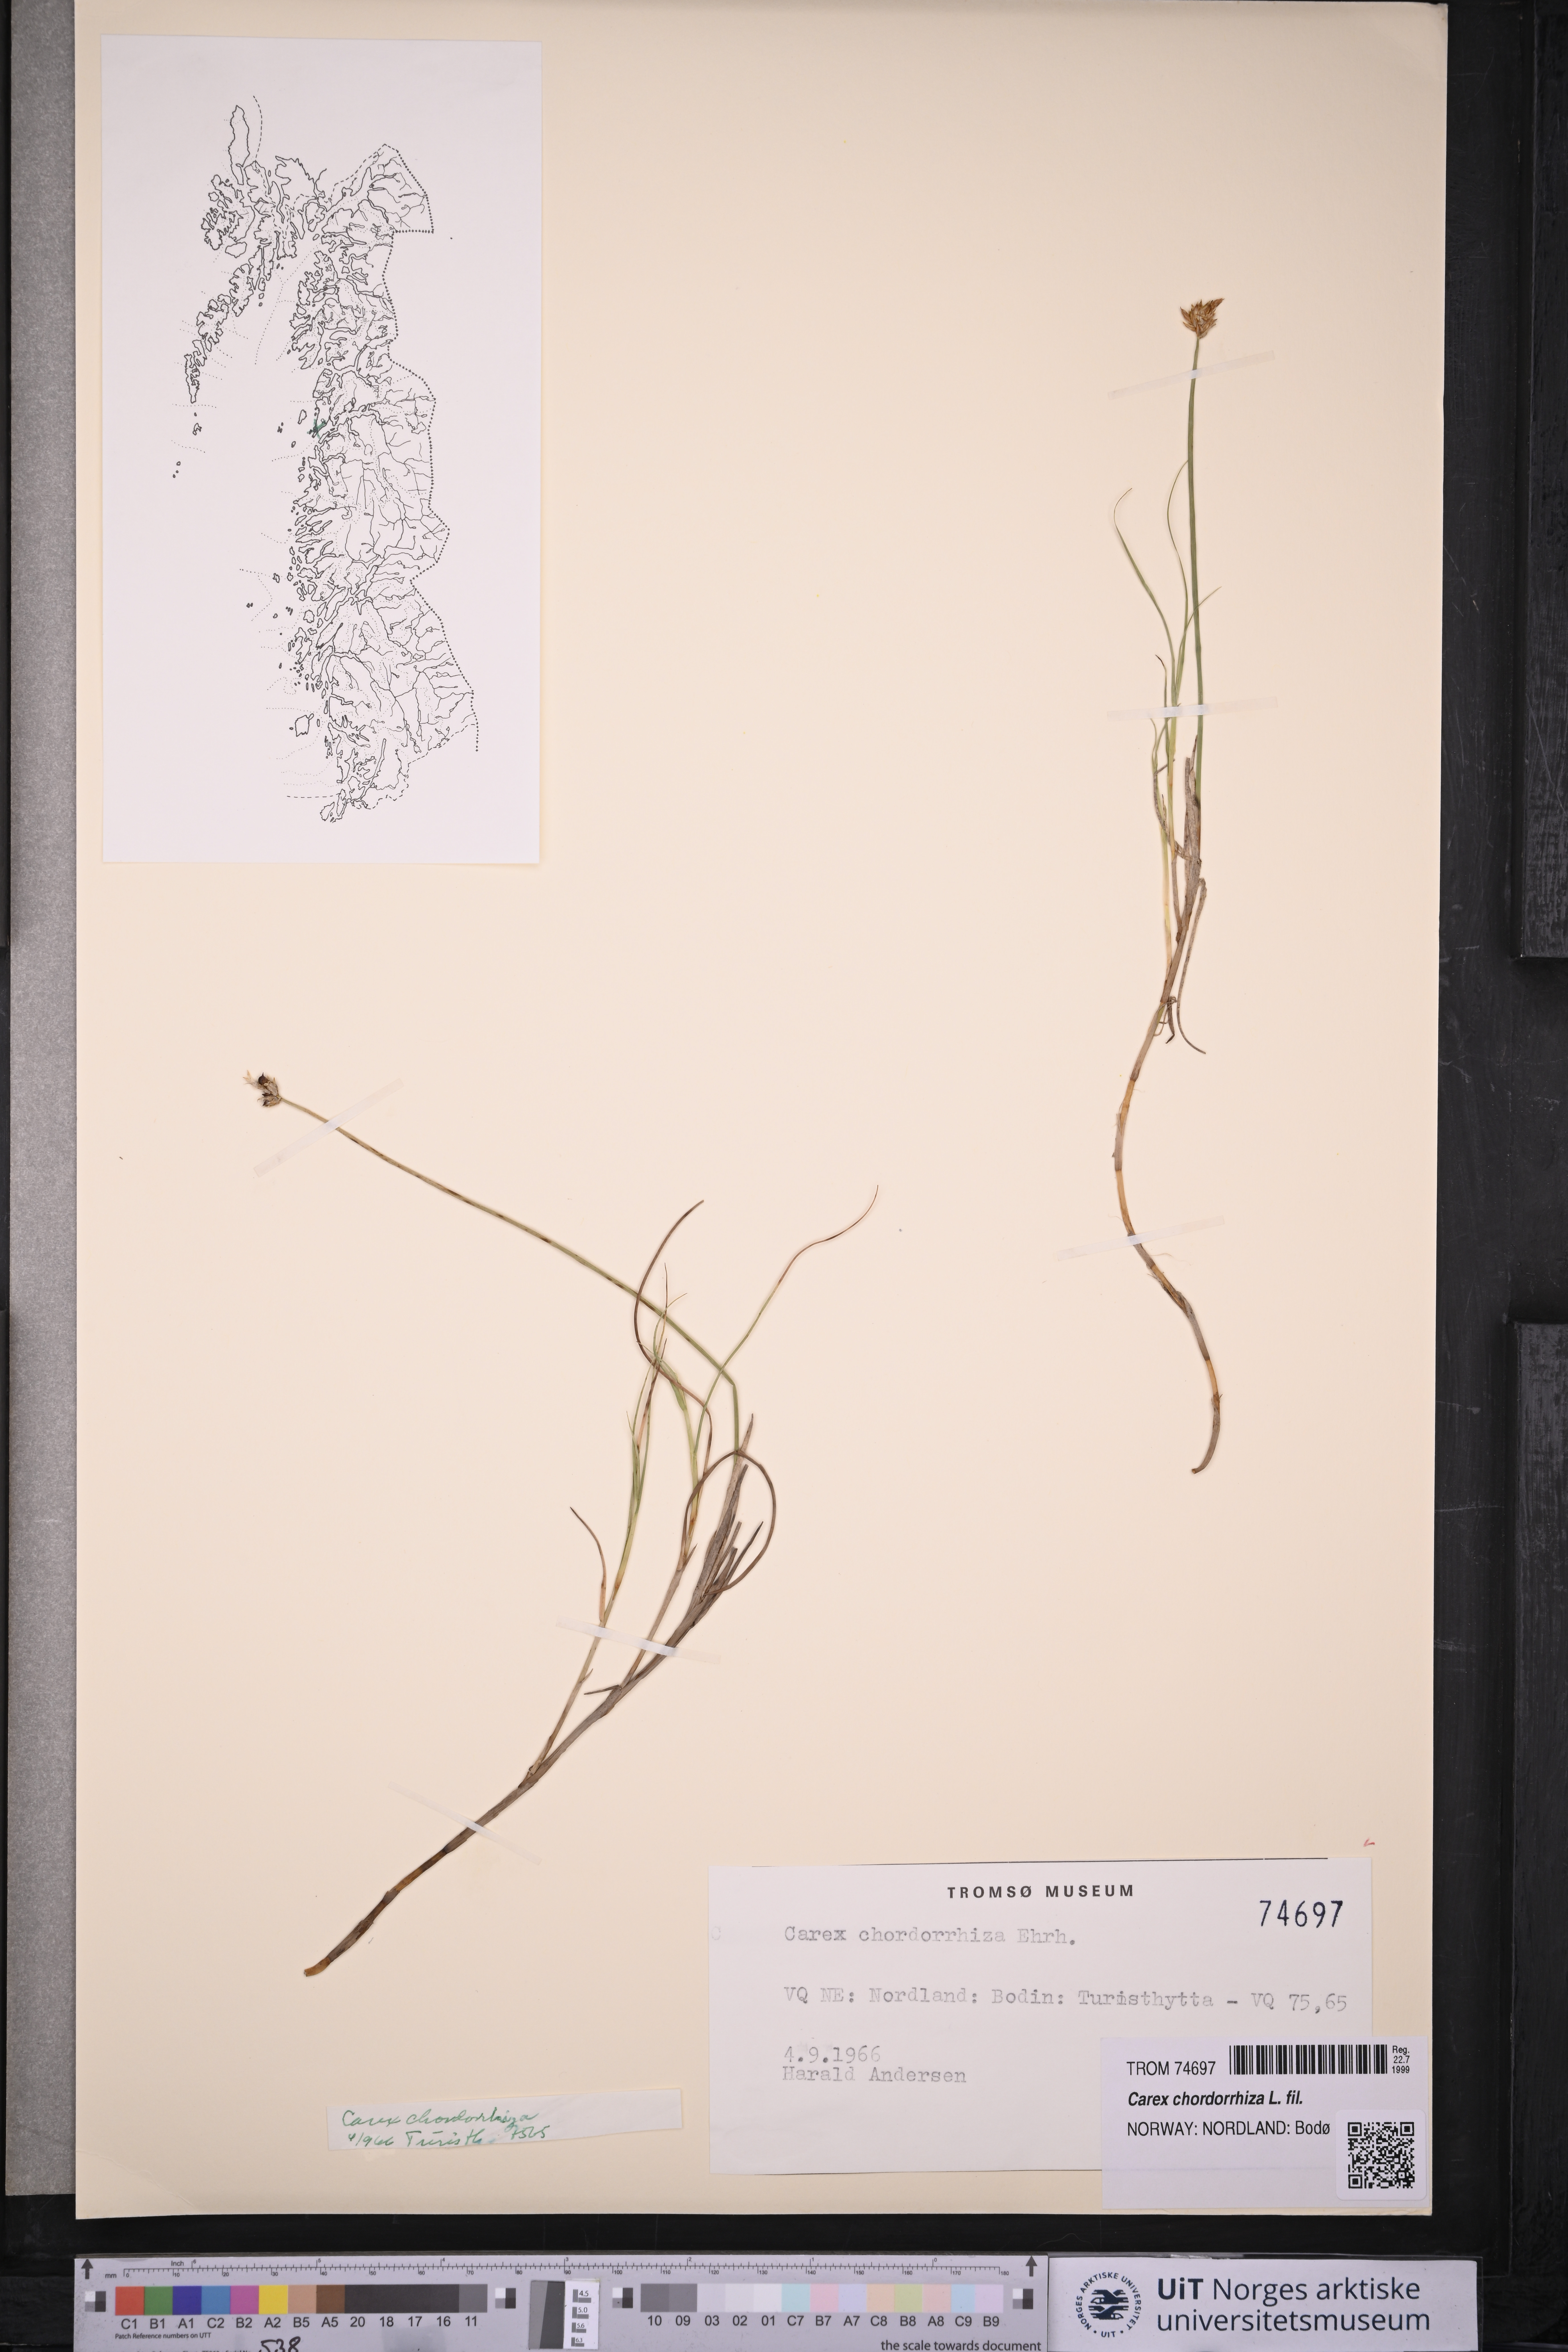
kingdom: Plantae
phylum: Tracheophyta
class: Liliopsida
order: Poales
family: Cyperaceae
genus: Carex
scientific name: Carex chordorrhiza
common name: String sedge
